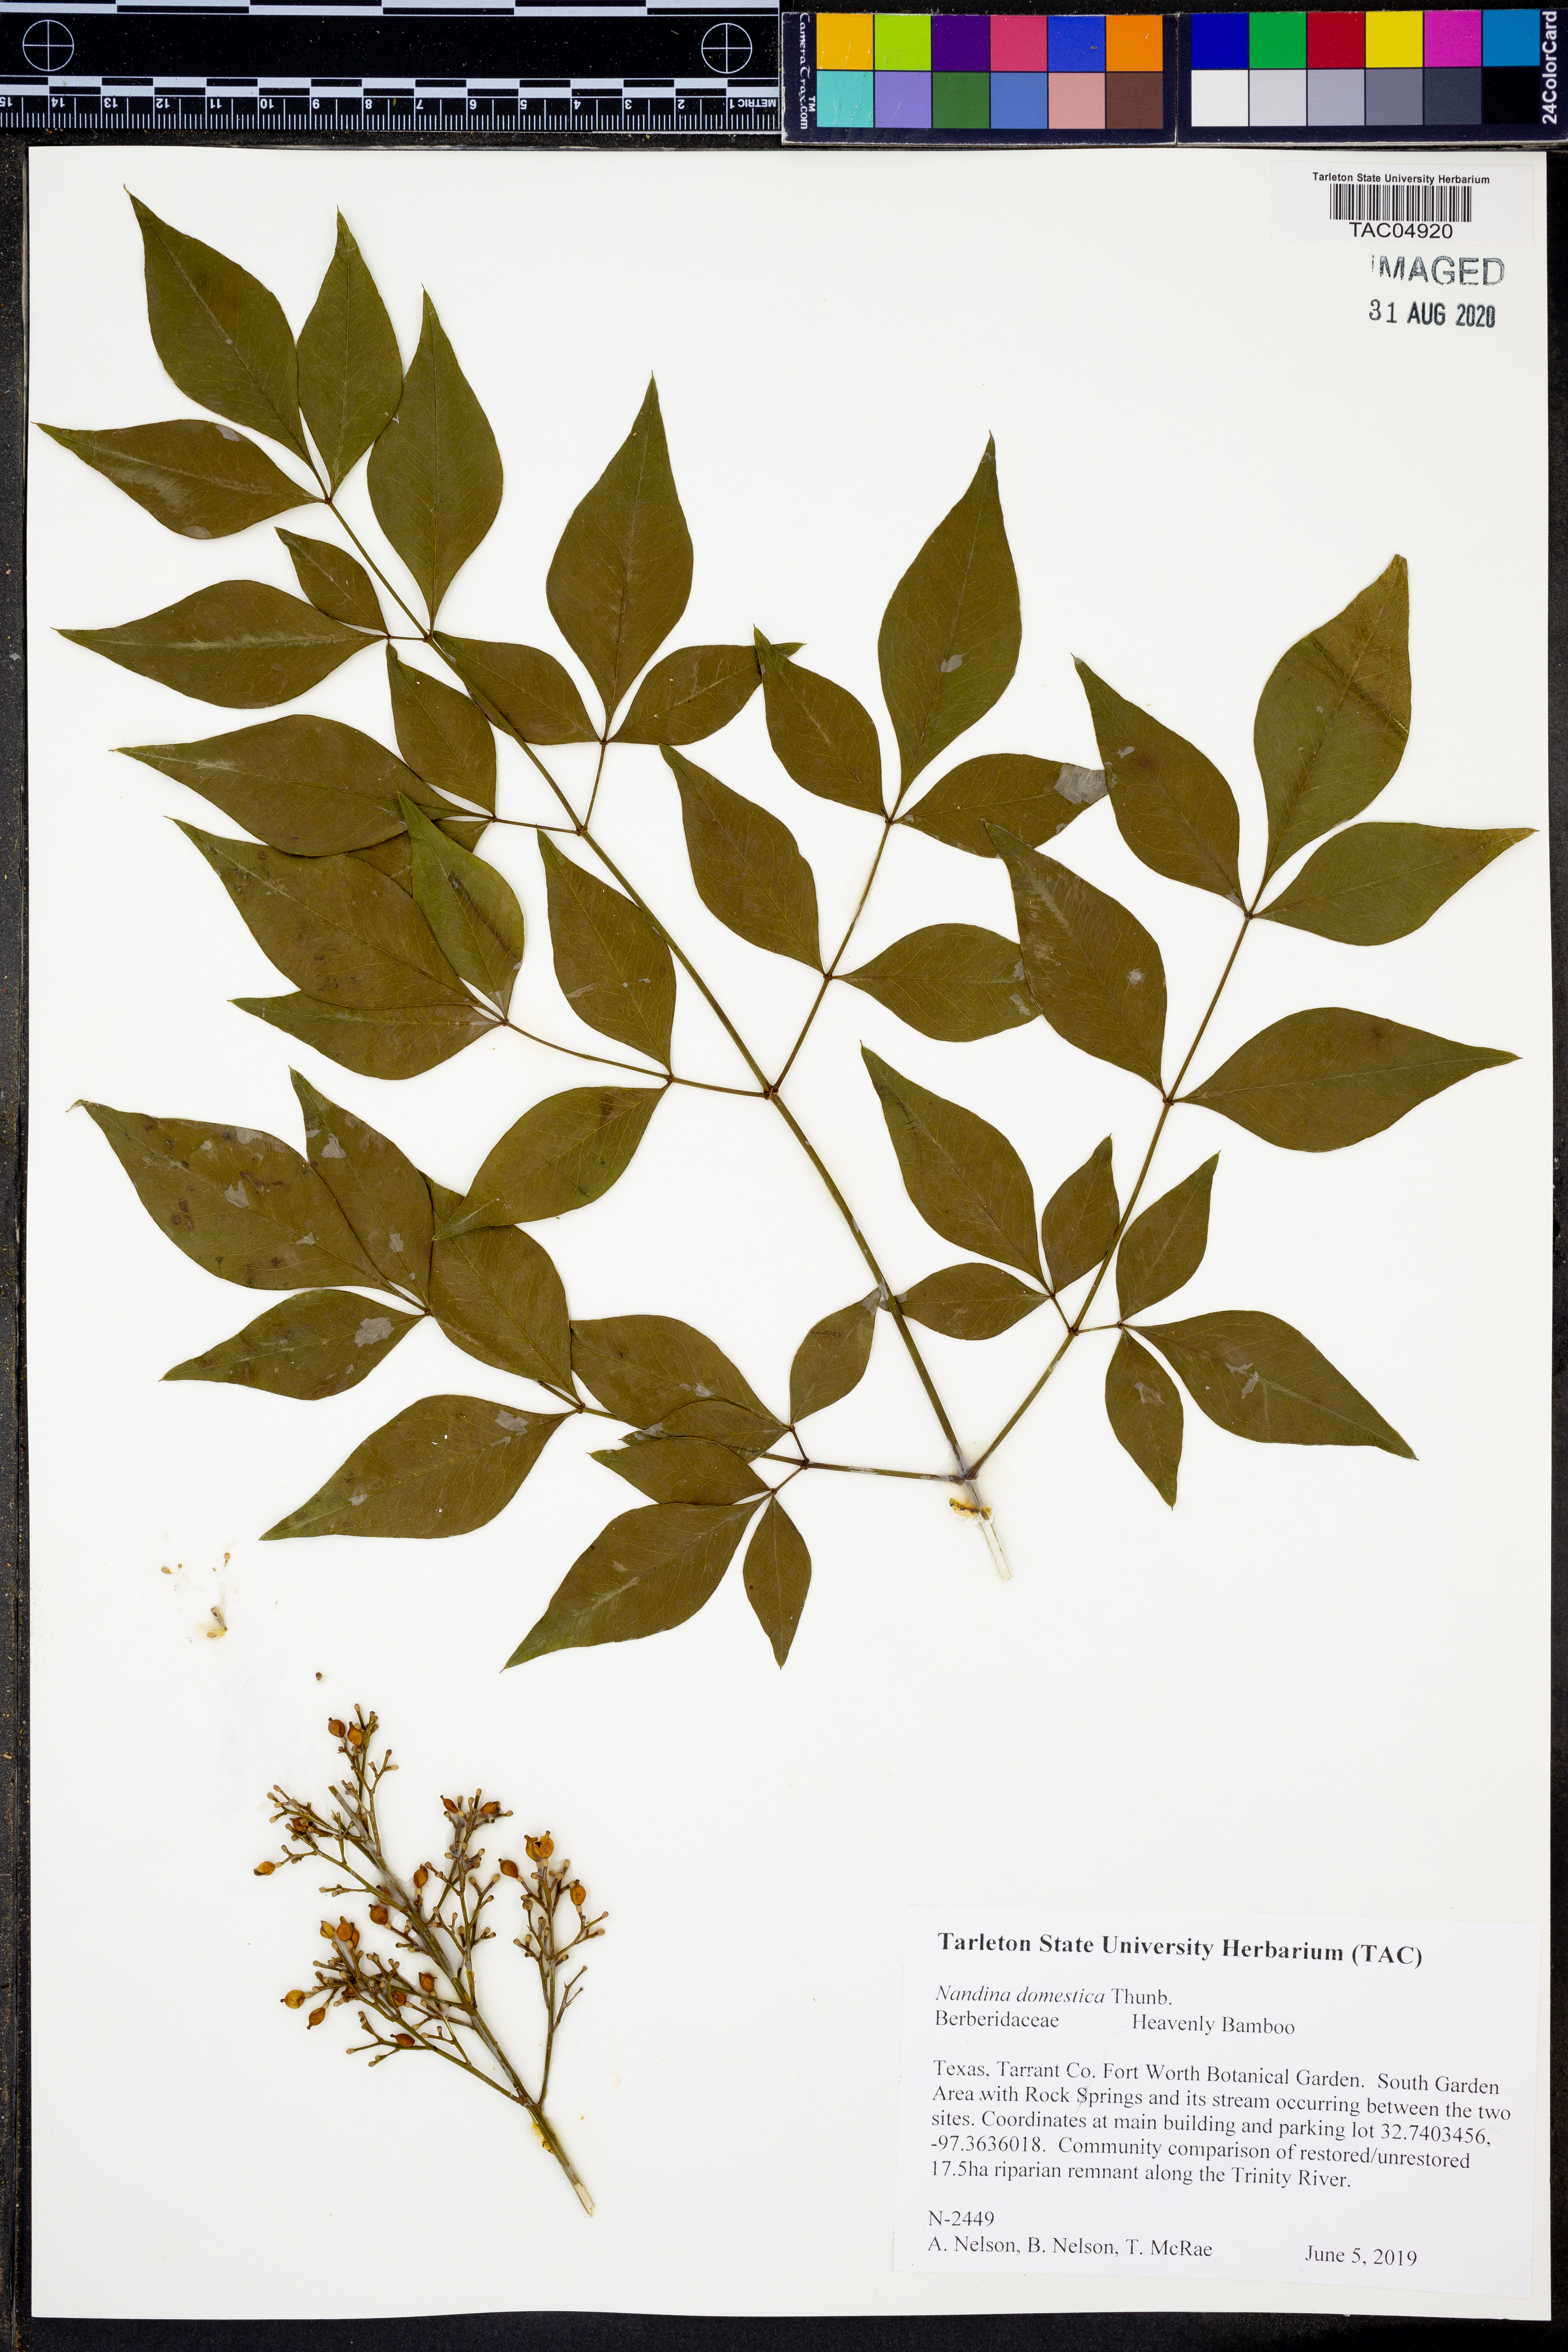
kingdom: Plantae
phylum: Tracheophyta
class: Magnoliopsida
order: Ranunculales
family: Berberidaceae
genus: Nandina
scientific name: Nandina domestica
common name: Sacred bamboo
